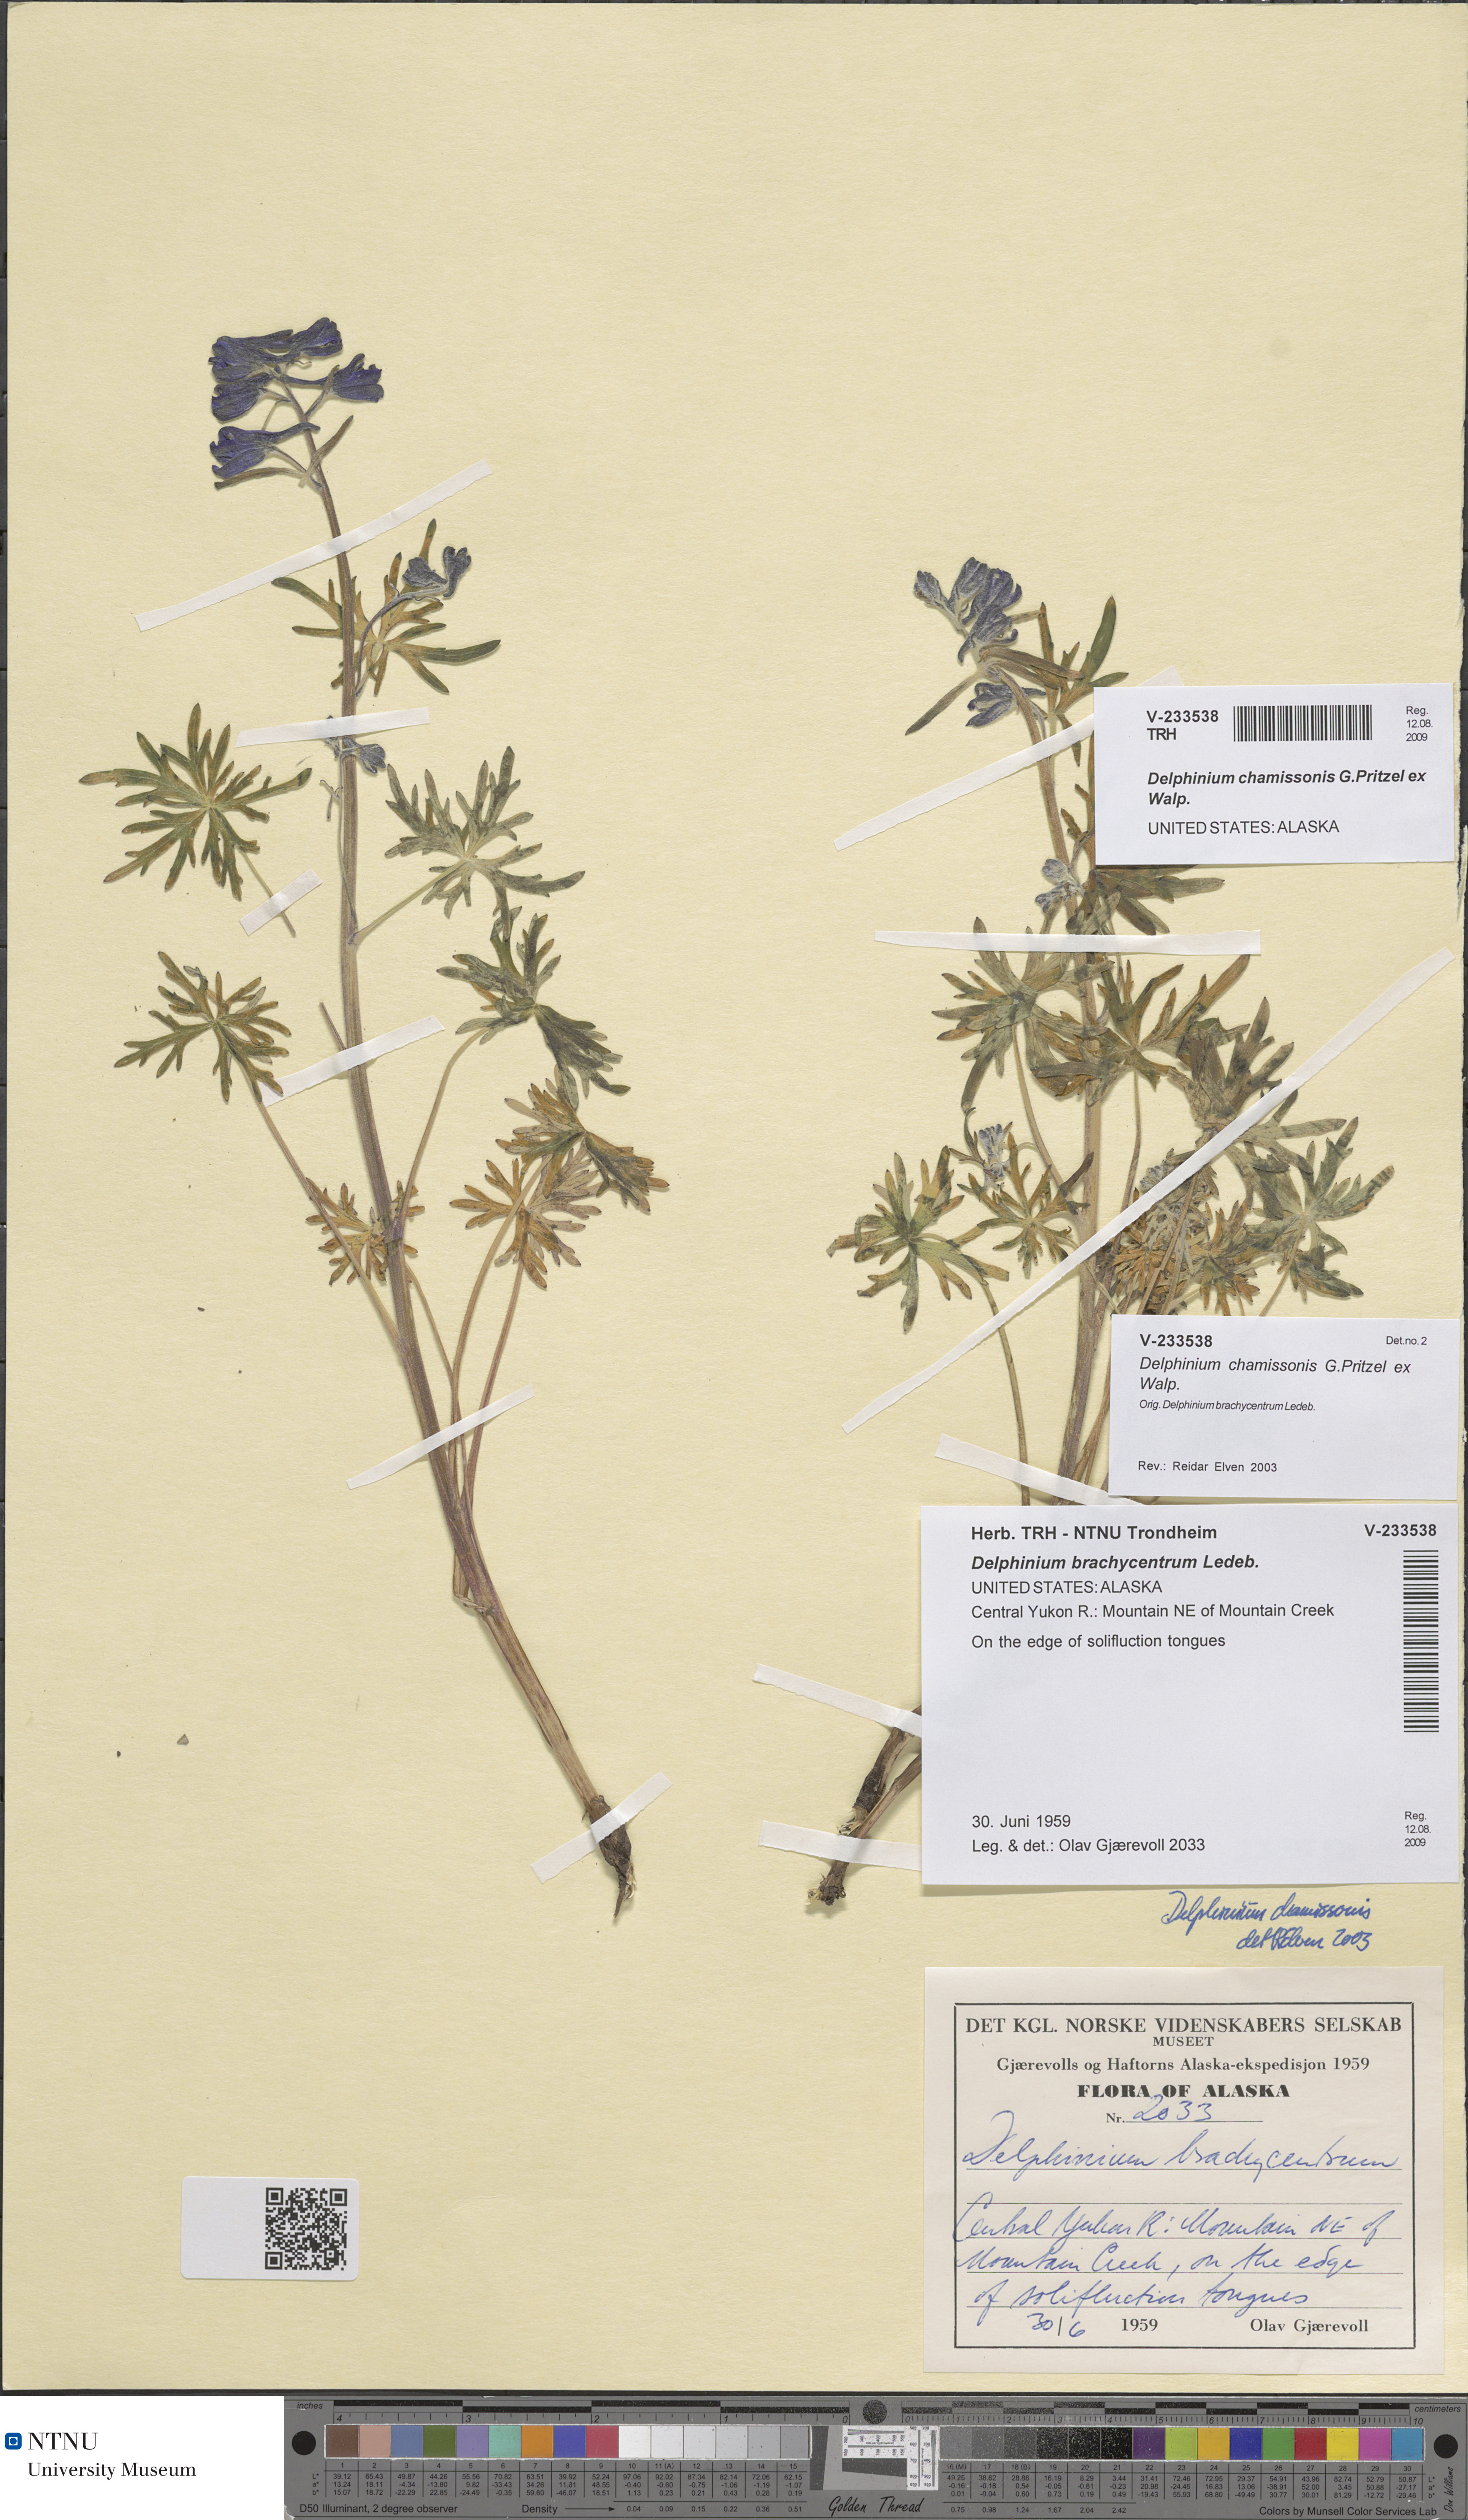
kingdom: Plantae
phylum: Tracheophyta
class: Magnoliopsida
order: Ranunculales
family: Ranunculaceae
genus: Delphinium
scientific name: Delphinium chamissonis
